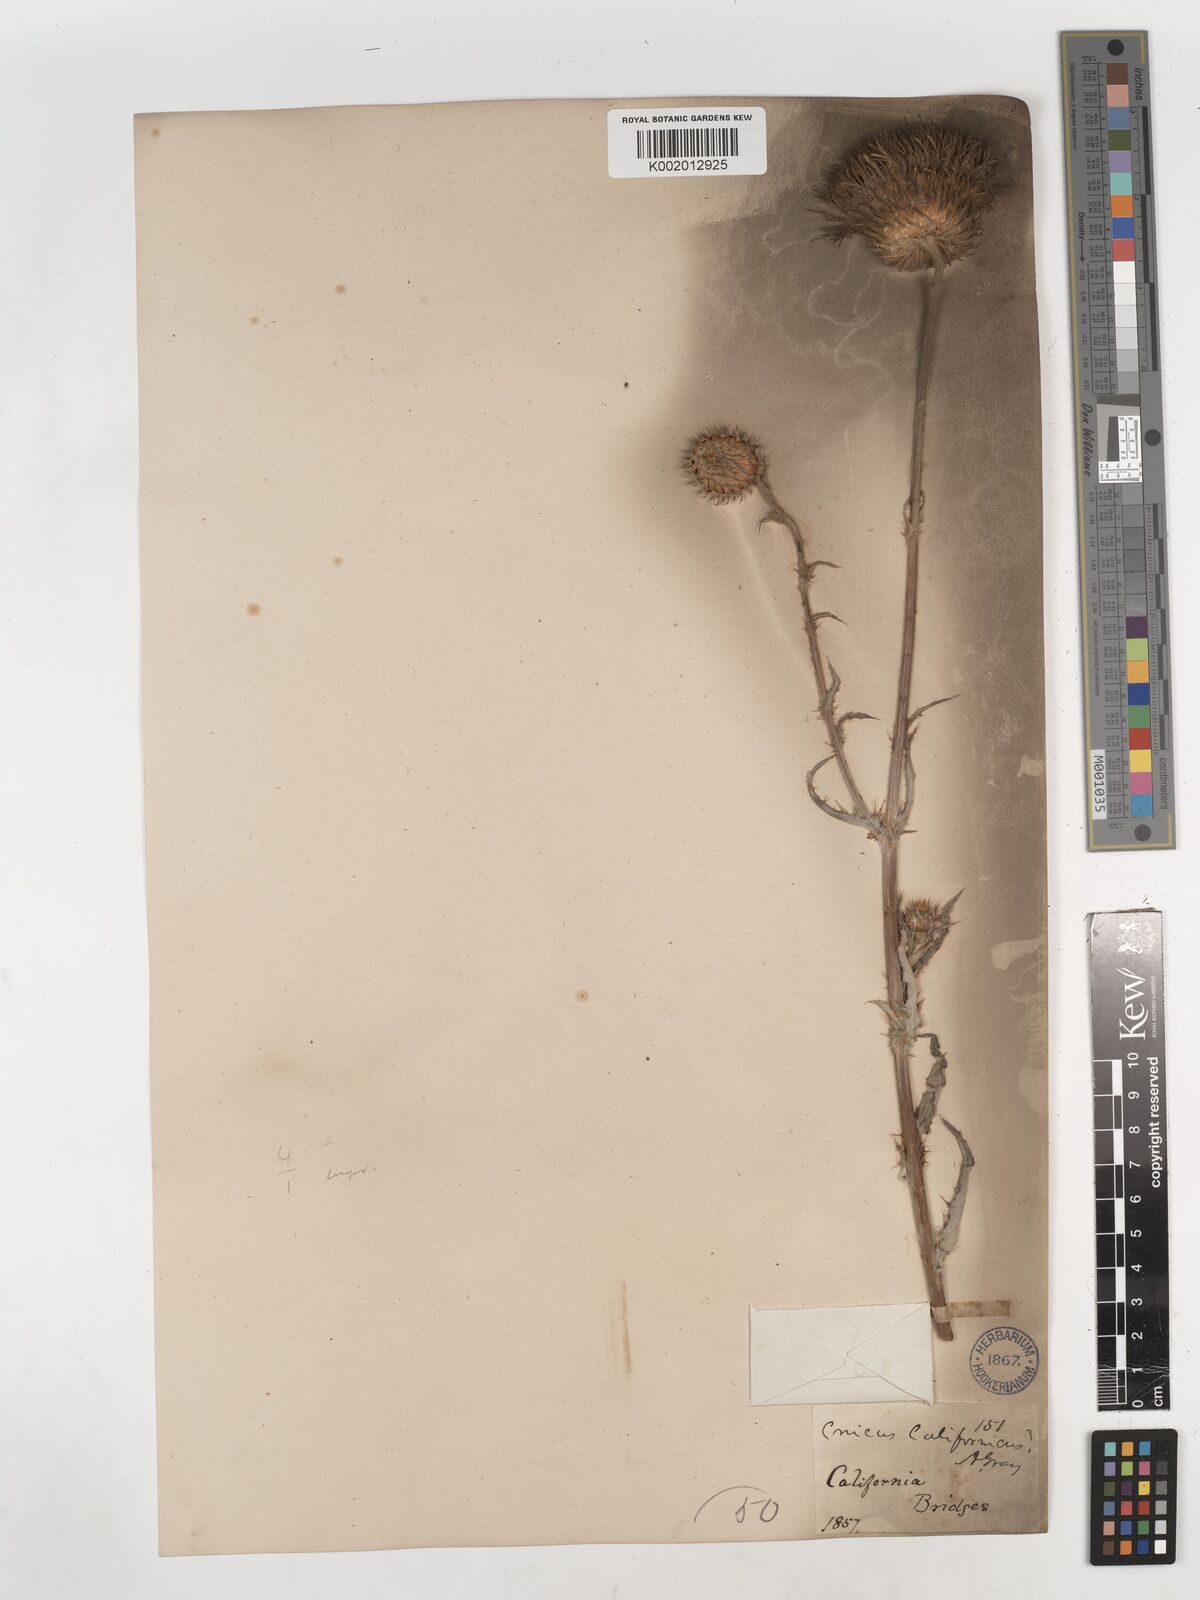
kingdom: Plantae
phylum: Tracheophyta
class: Magnoliopsida
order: Asterales
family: Asteraceae
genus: Cirsium
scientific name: Cirsium occidentale
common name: Western thistle
